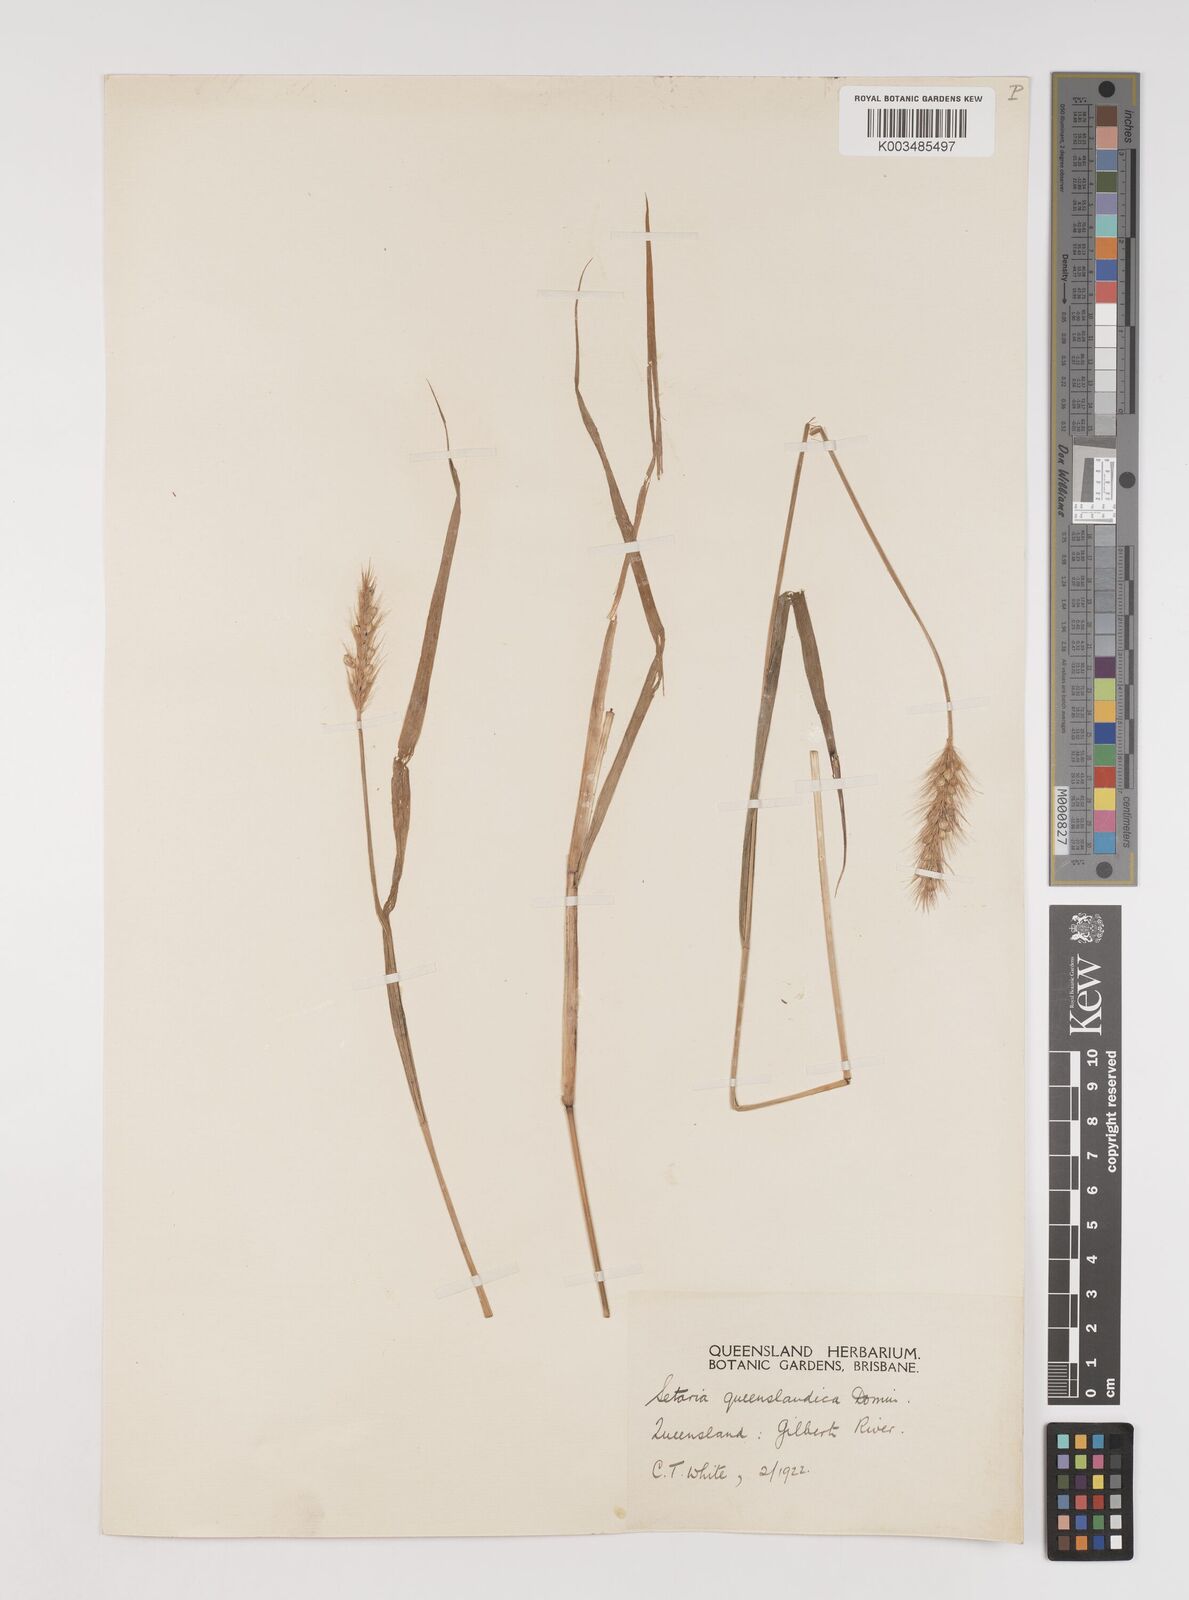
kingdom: Plantae
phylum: Tracheophyta
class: Liliopsida
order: Poales
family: Poaceae
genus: Setaria
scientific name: Setaria queenslandica
